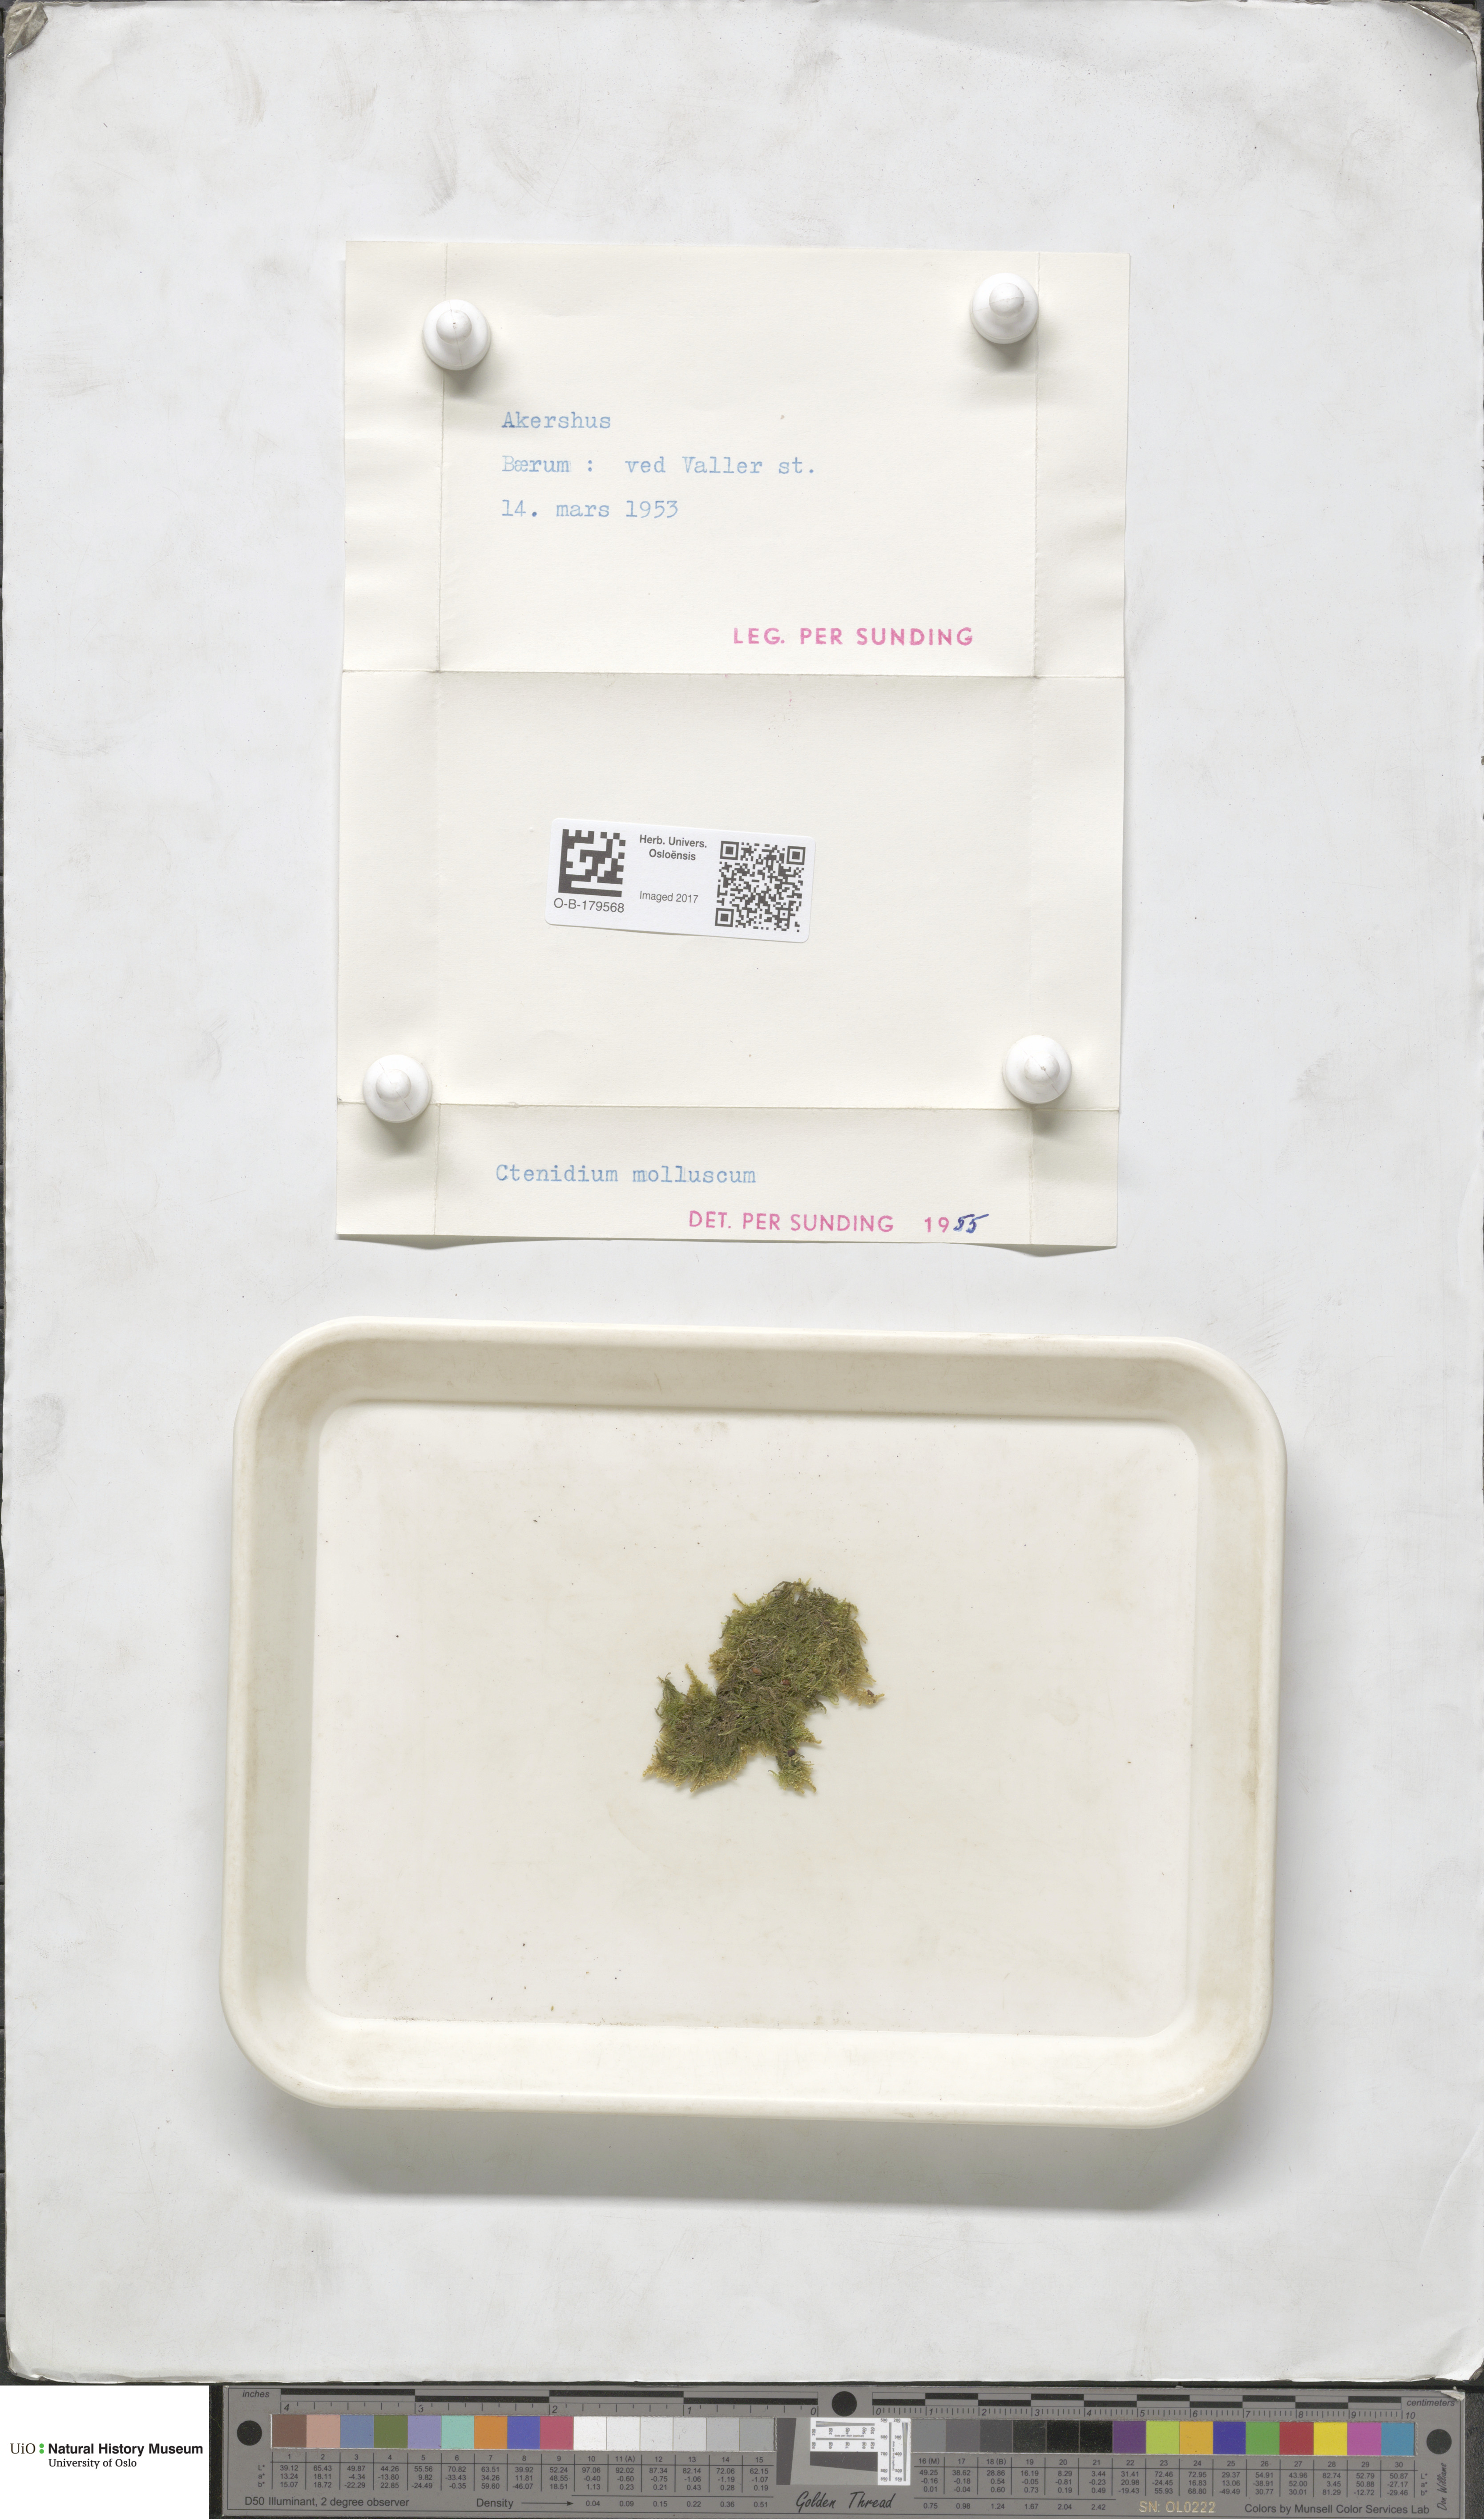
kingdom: Plantae
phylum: Bryophyta
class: Bryopsida
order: Hypnales
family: Myuriaceae
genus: Ctenidium
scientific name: Ctenidium molluscum
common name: Chalk comb-moss
